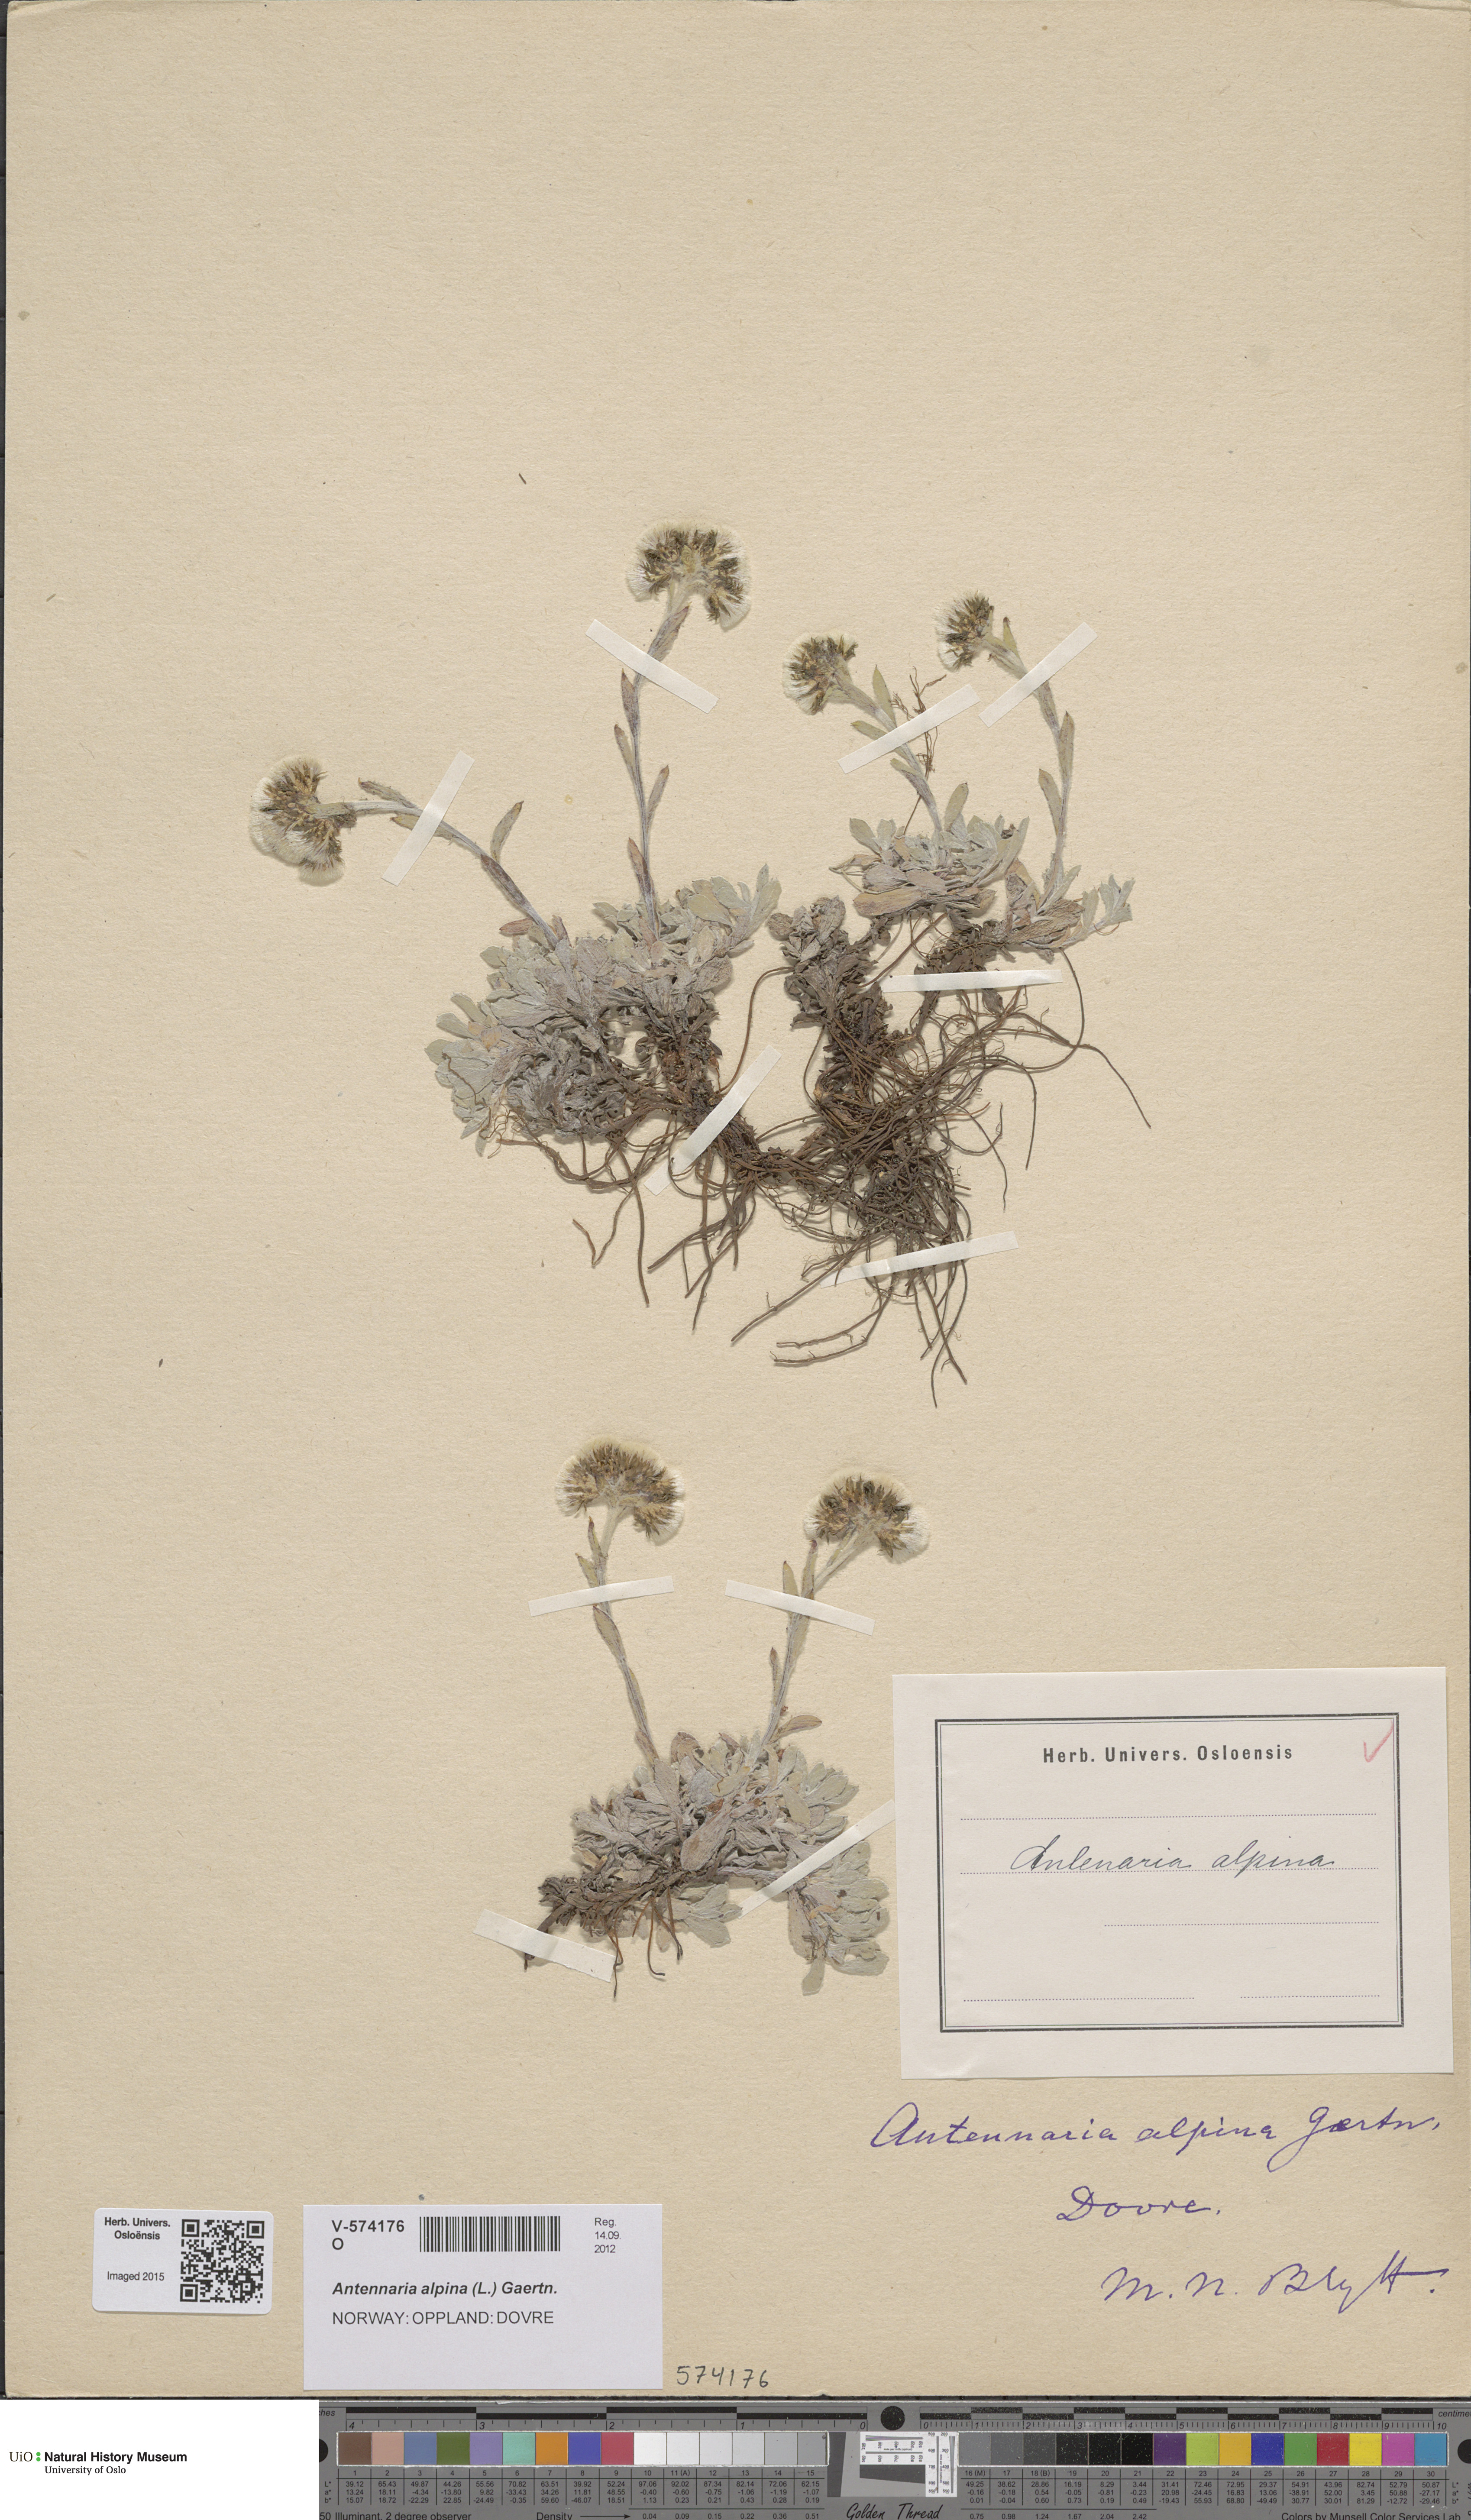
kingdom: Plantae
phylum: Tracheophyta
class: Magnoliopsida
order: Asterales
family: Asteraceae
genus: Antennaria
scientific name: Antennaria alpina
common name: Alpine pussytoes
